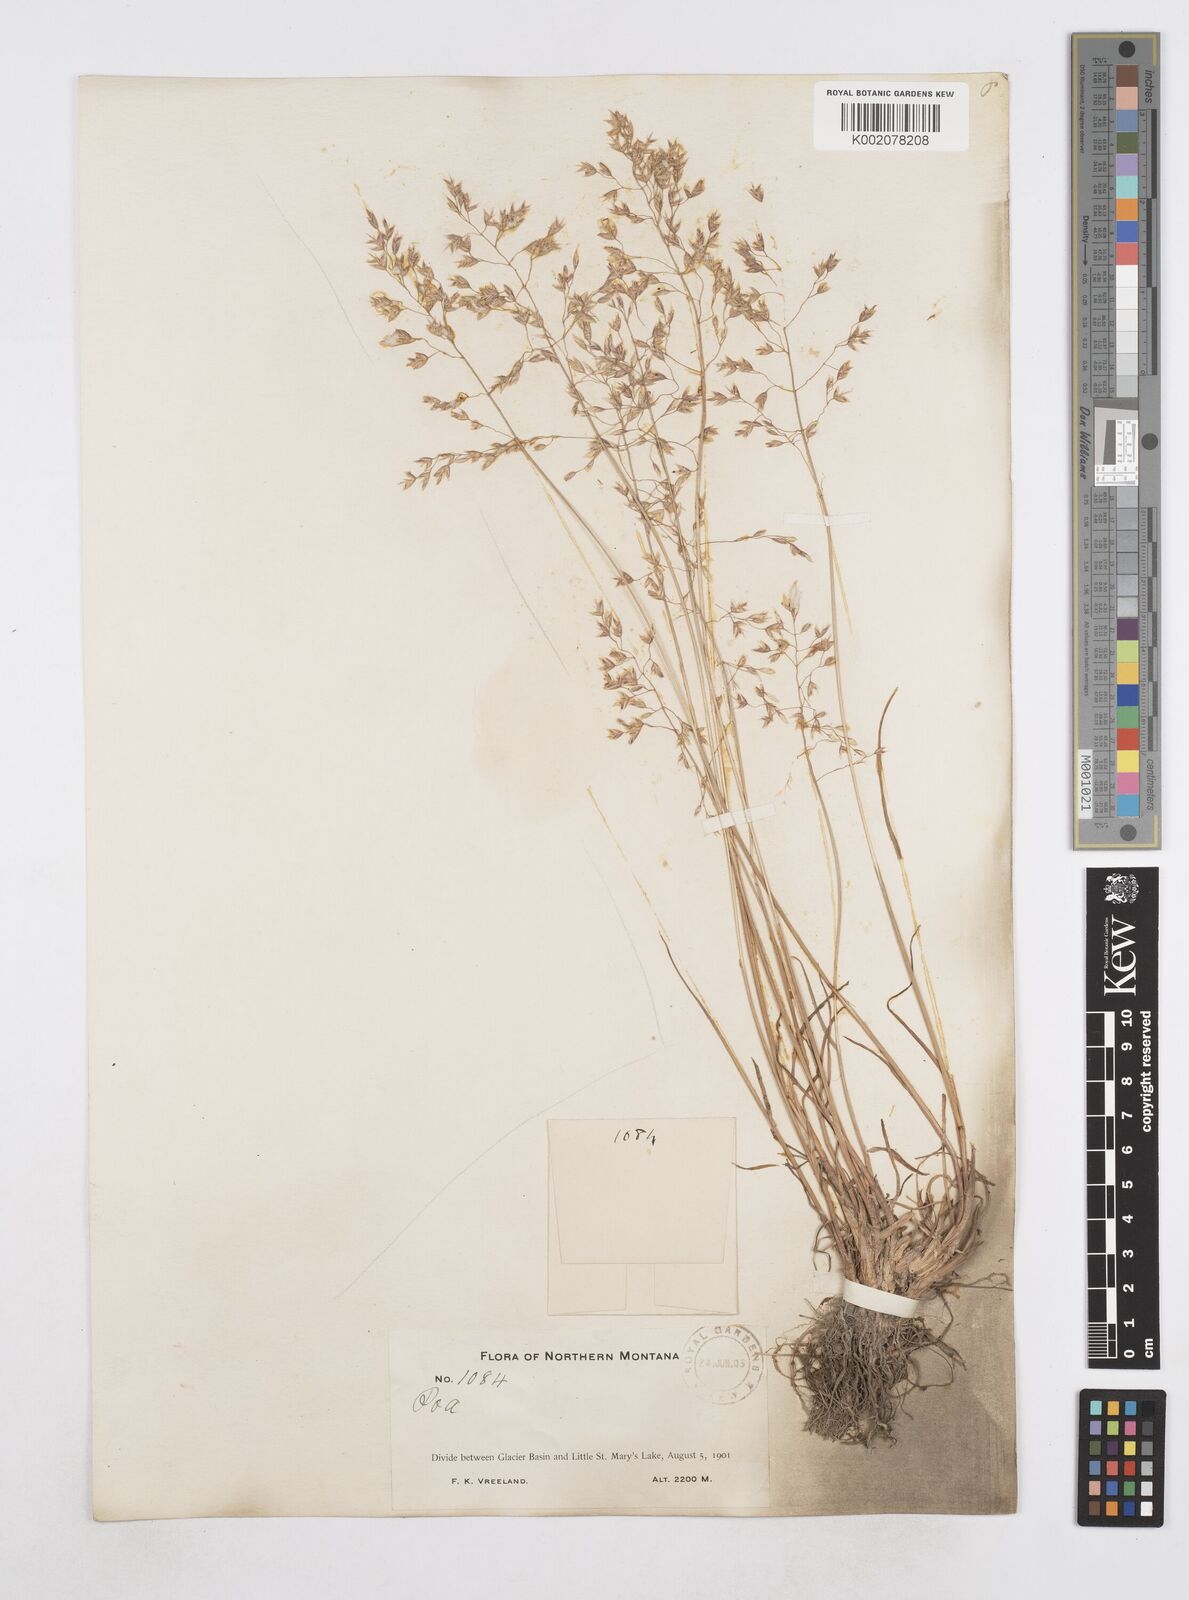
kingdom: Plantae
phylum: Tracheophyta
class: Liliopsida
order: Poales
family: Poaceae
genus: Poa
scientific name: Poa
